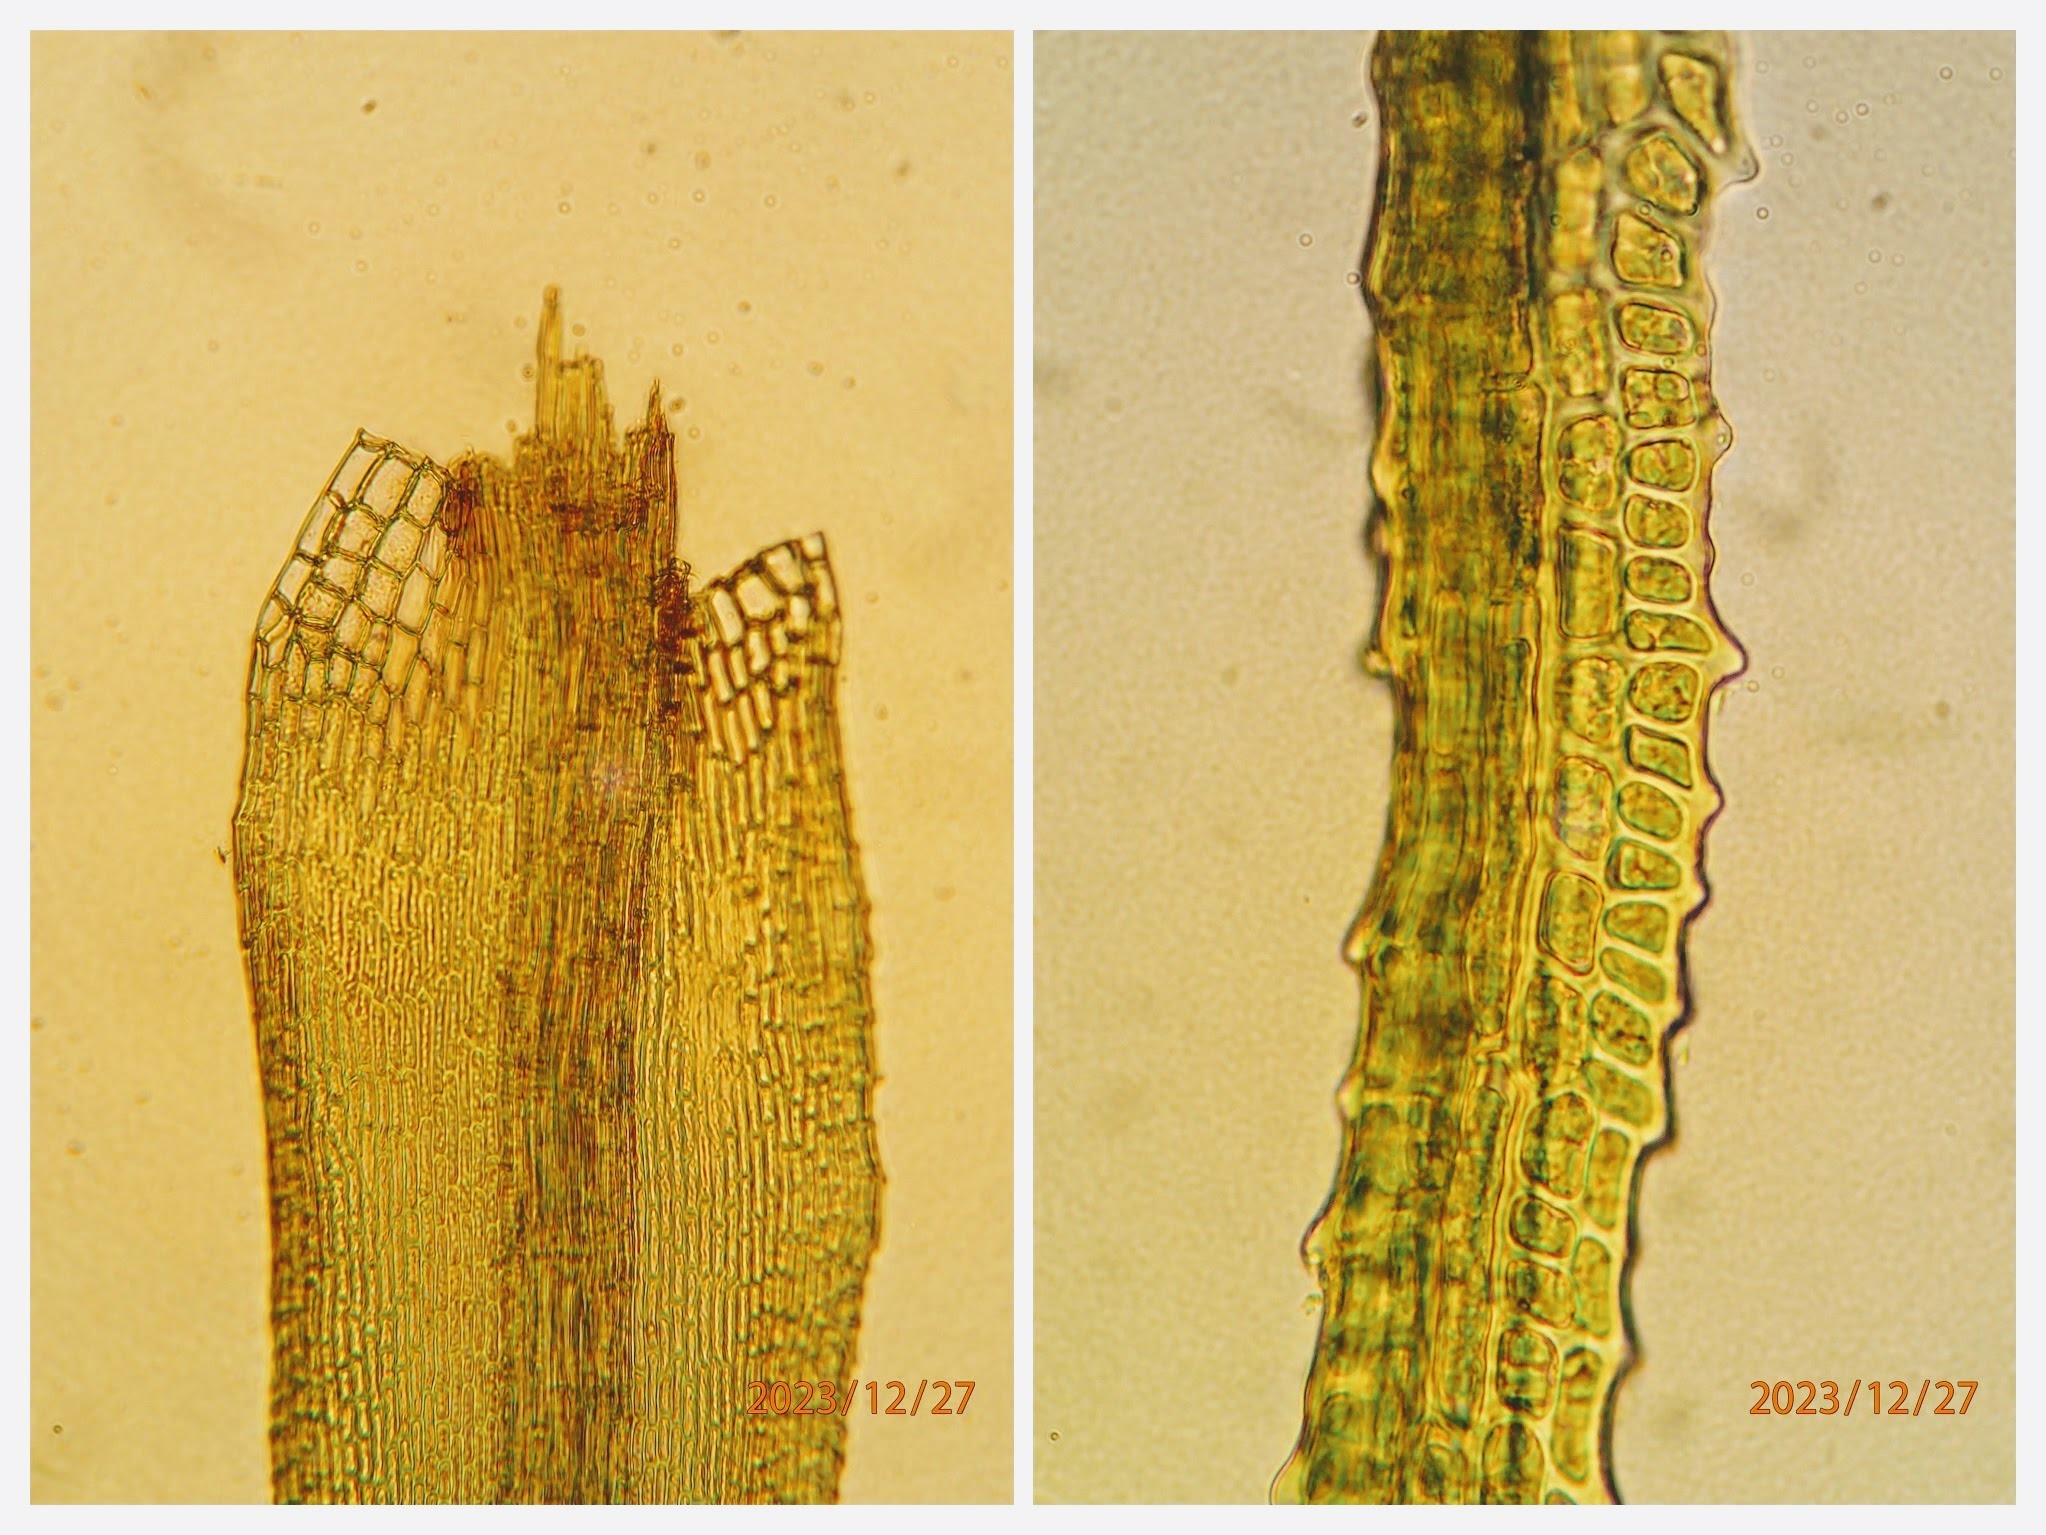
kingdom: Plantae
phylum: Bryophyta
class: Bryopsida
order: Dicranales
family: Dicranaceae
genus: Orthodicranum
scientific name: Orthodicranum montanum
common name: Tæt tyndvinge
